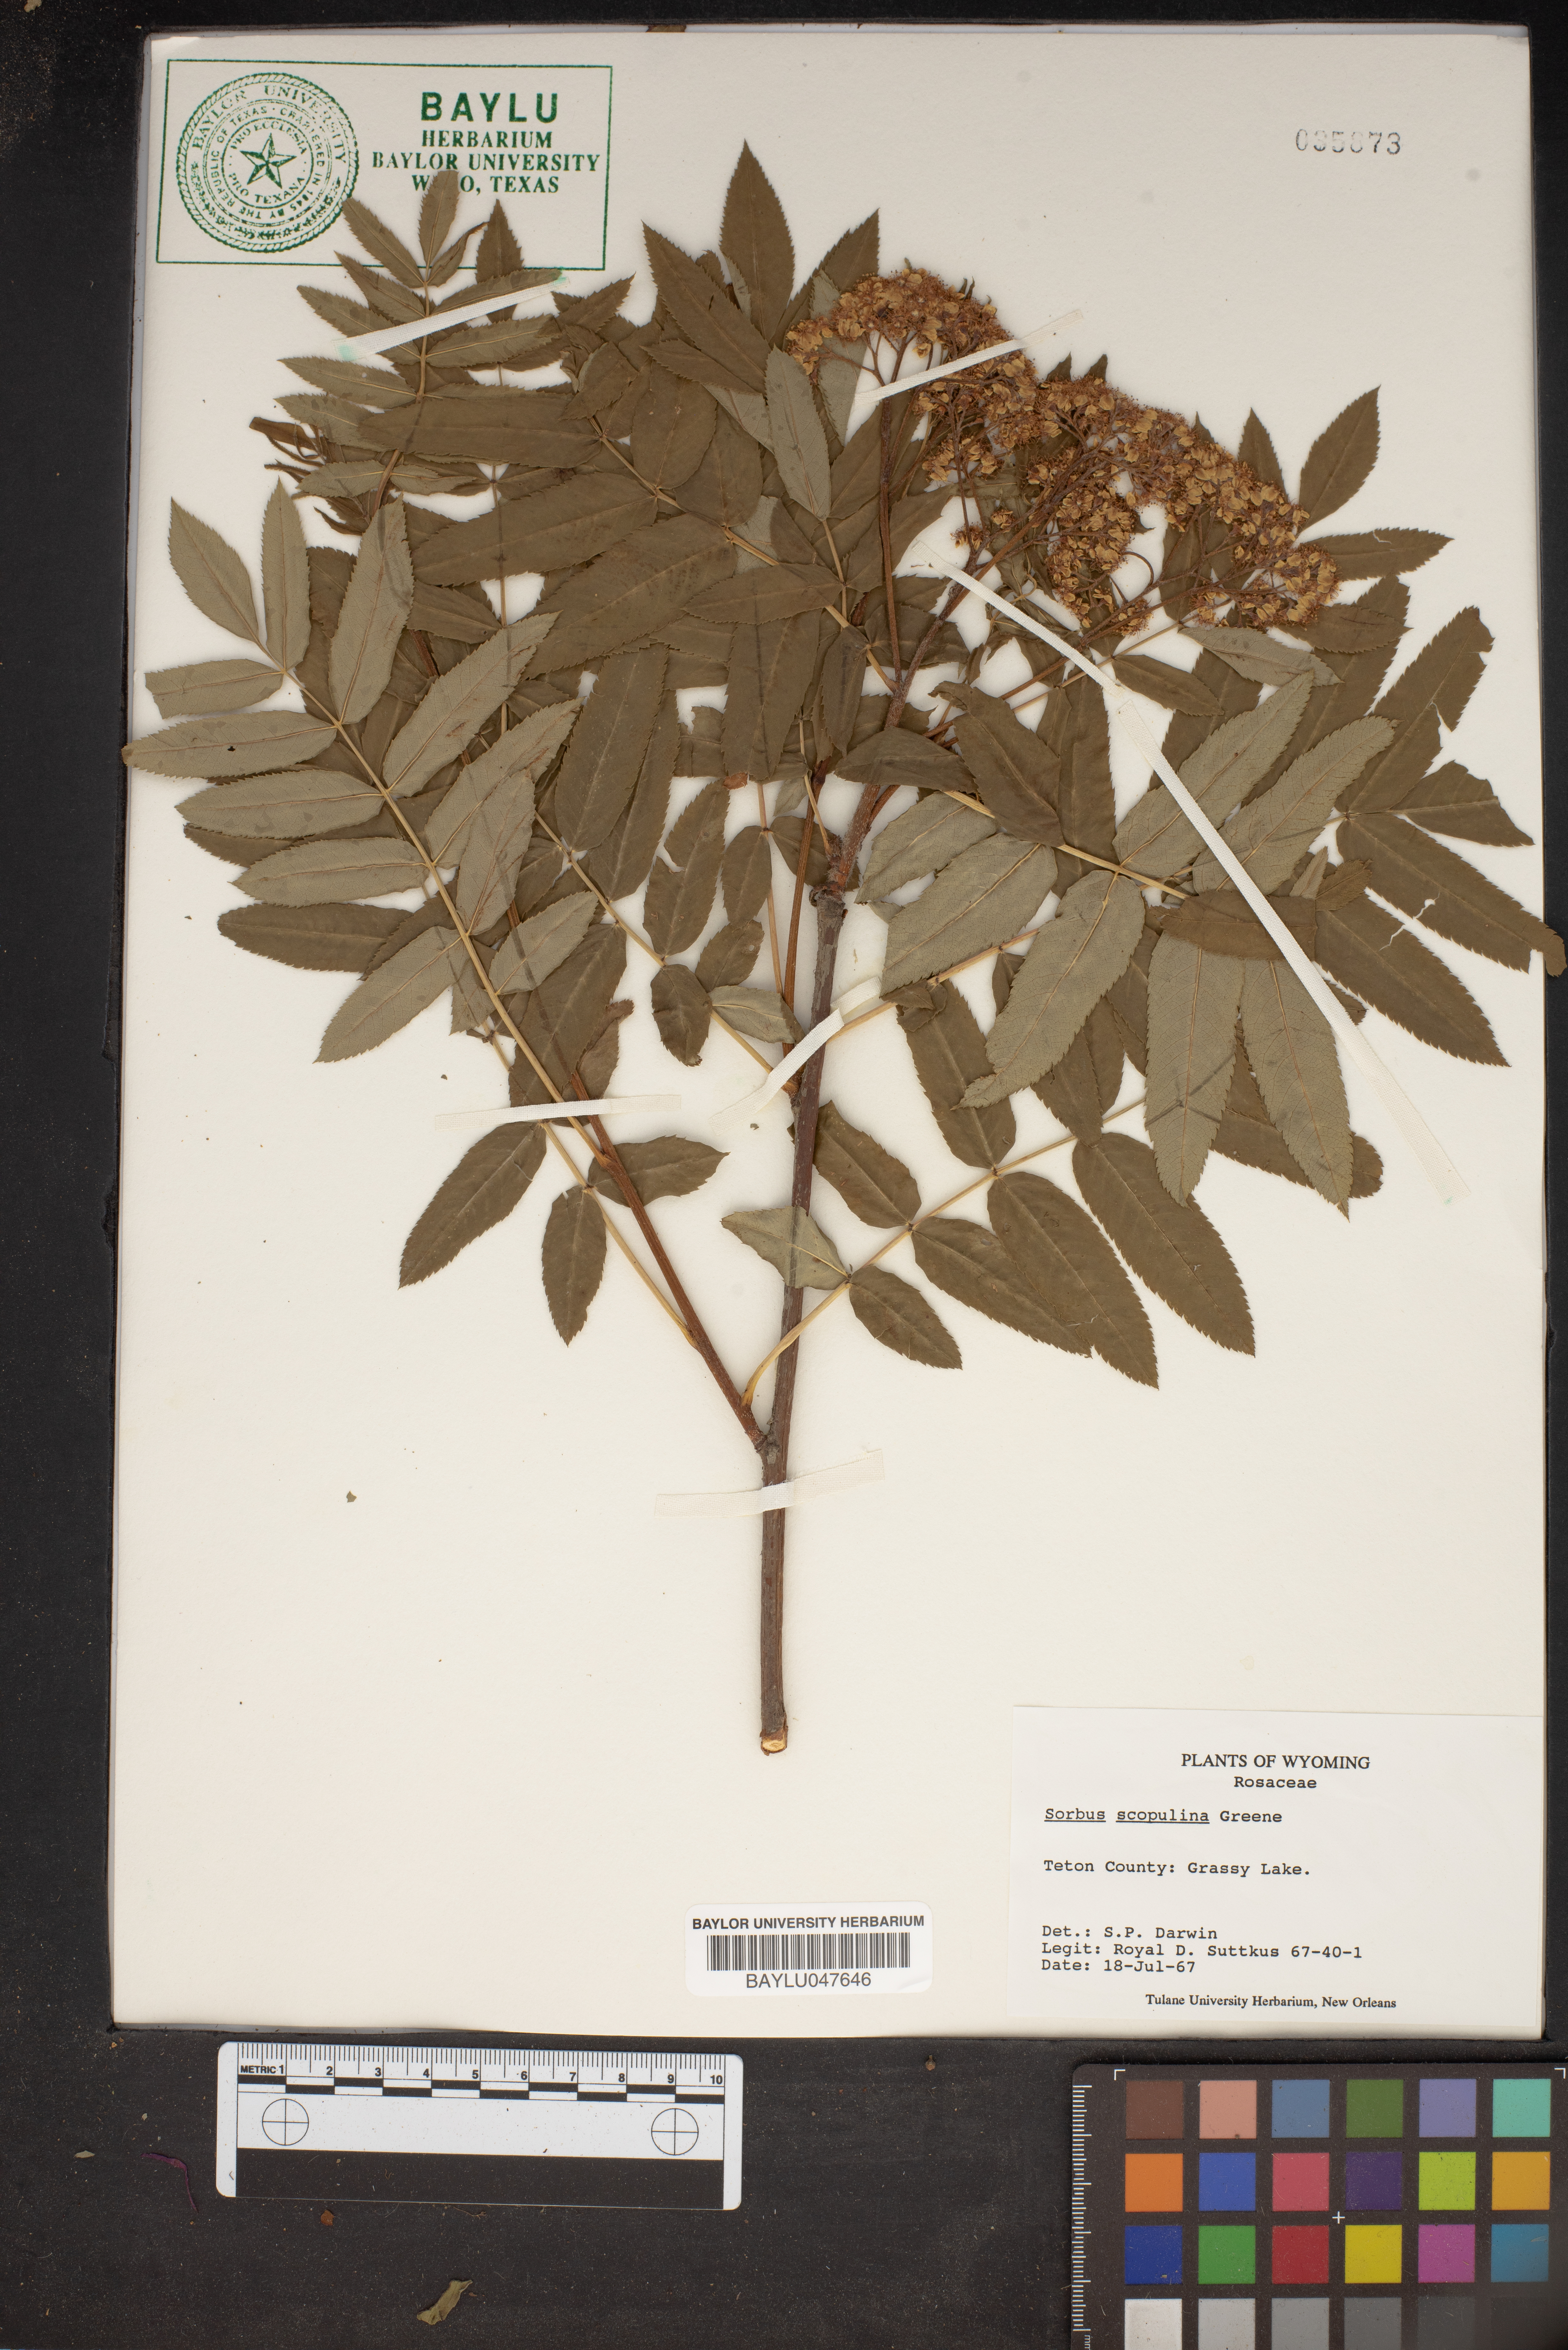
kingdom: Plantae
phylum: Tracheophyta
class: Magnoliopsida
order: Rosales
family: Rosaceae
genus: Sorbus
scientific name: Sorbus scopulina
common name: Greene's mountain-ash
